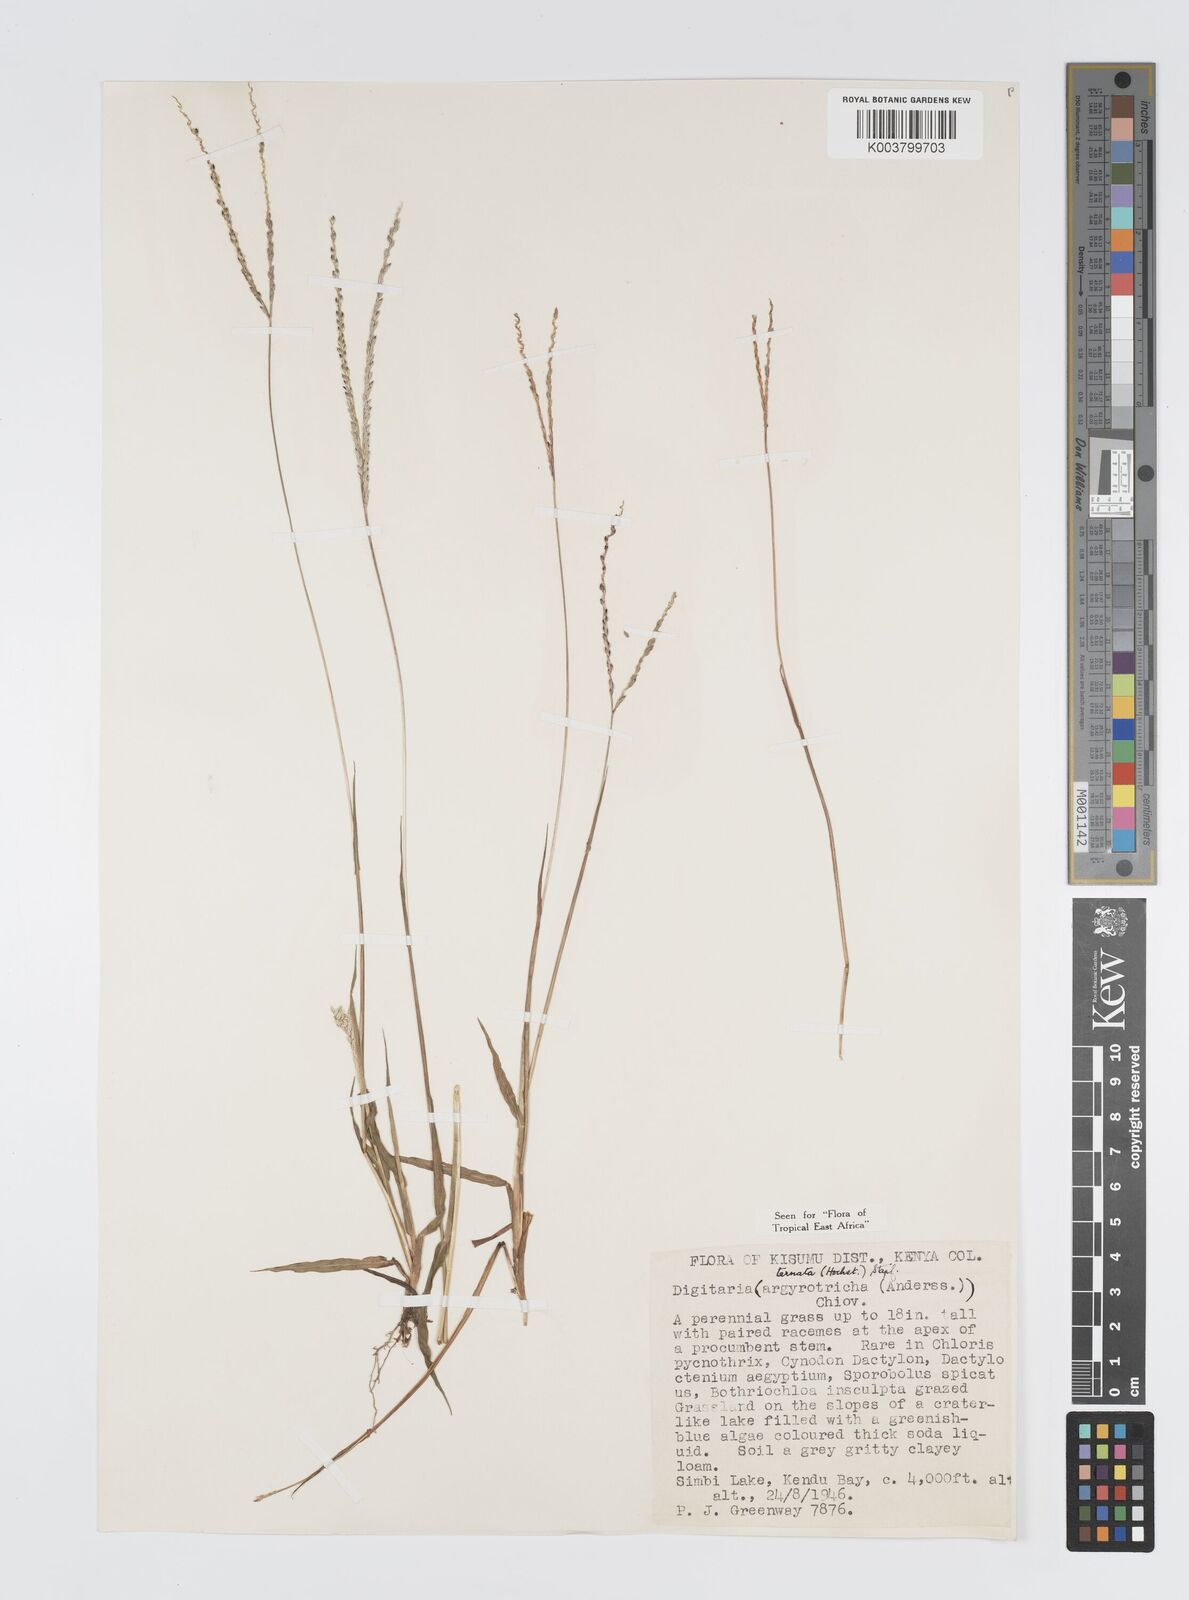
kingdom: Plantae
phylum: Tracheophyta
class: Liliopsida
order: Poales
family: Poaceae
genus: Digitaria
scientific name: Digitaria ternata
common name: Blackseed crabgrass
